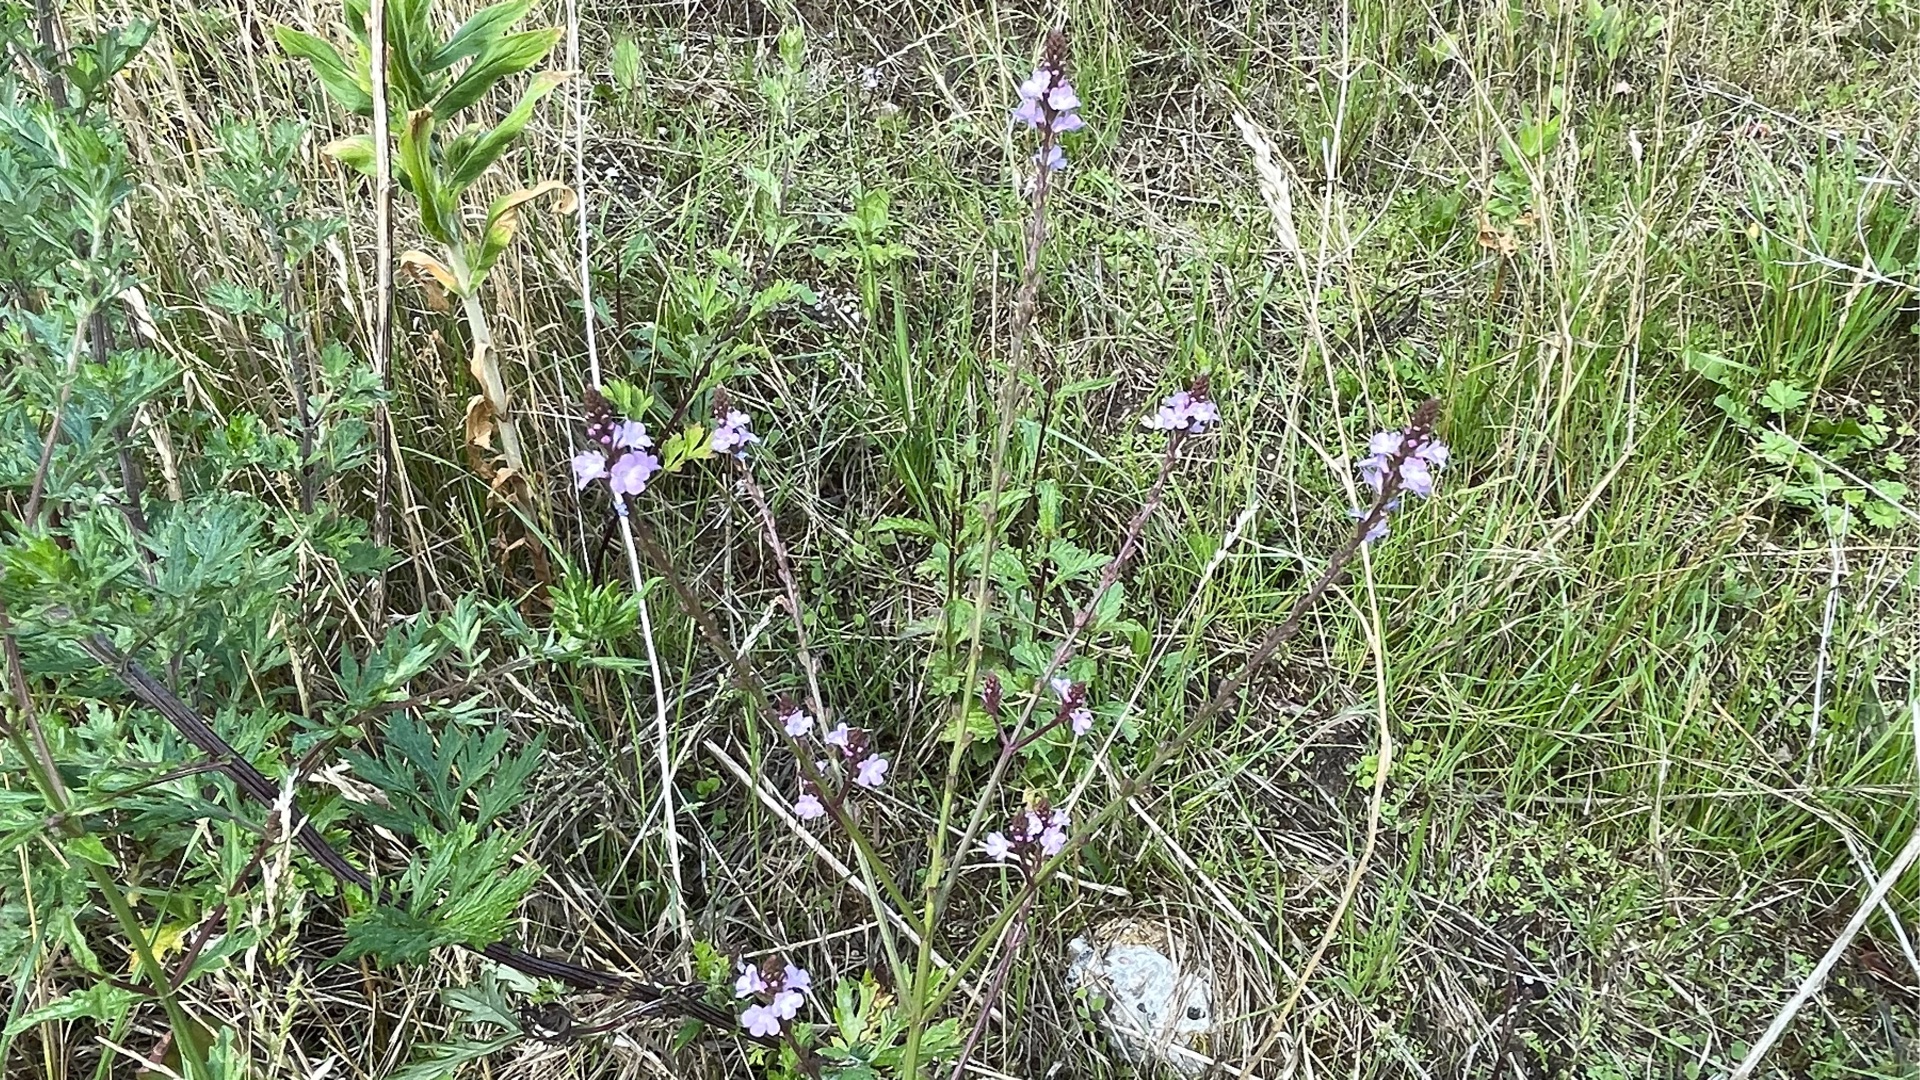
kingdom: Plantae
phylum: Tracheophyta
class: Magnoliopsida
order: Lamiales
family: Verbenaceae
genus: Verbena
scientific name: Verbena officinalis
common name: Læge-jernurt
